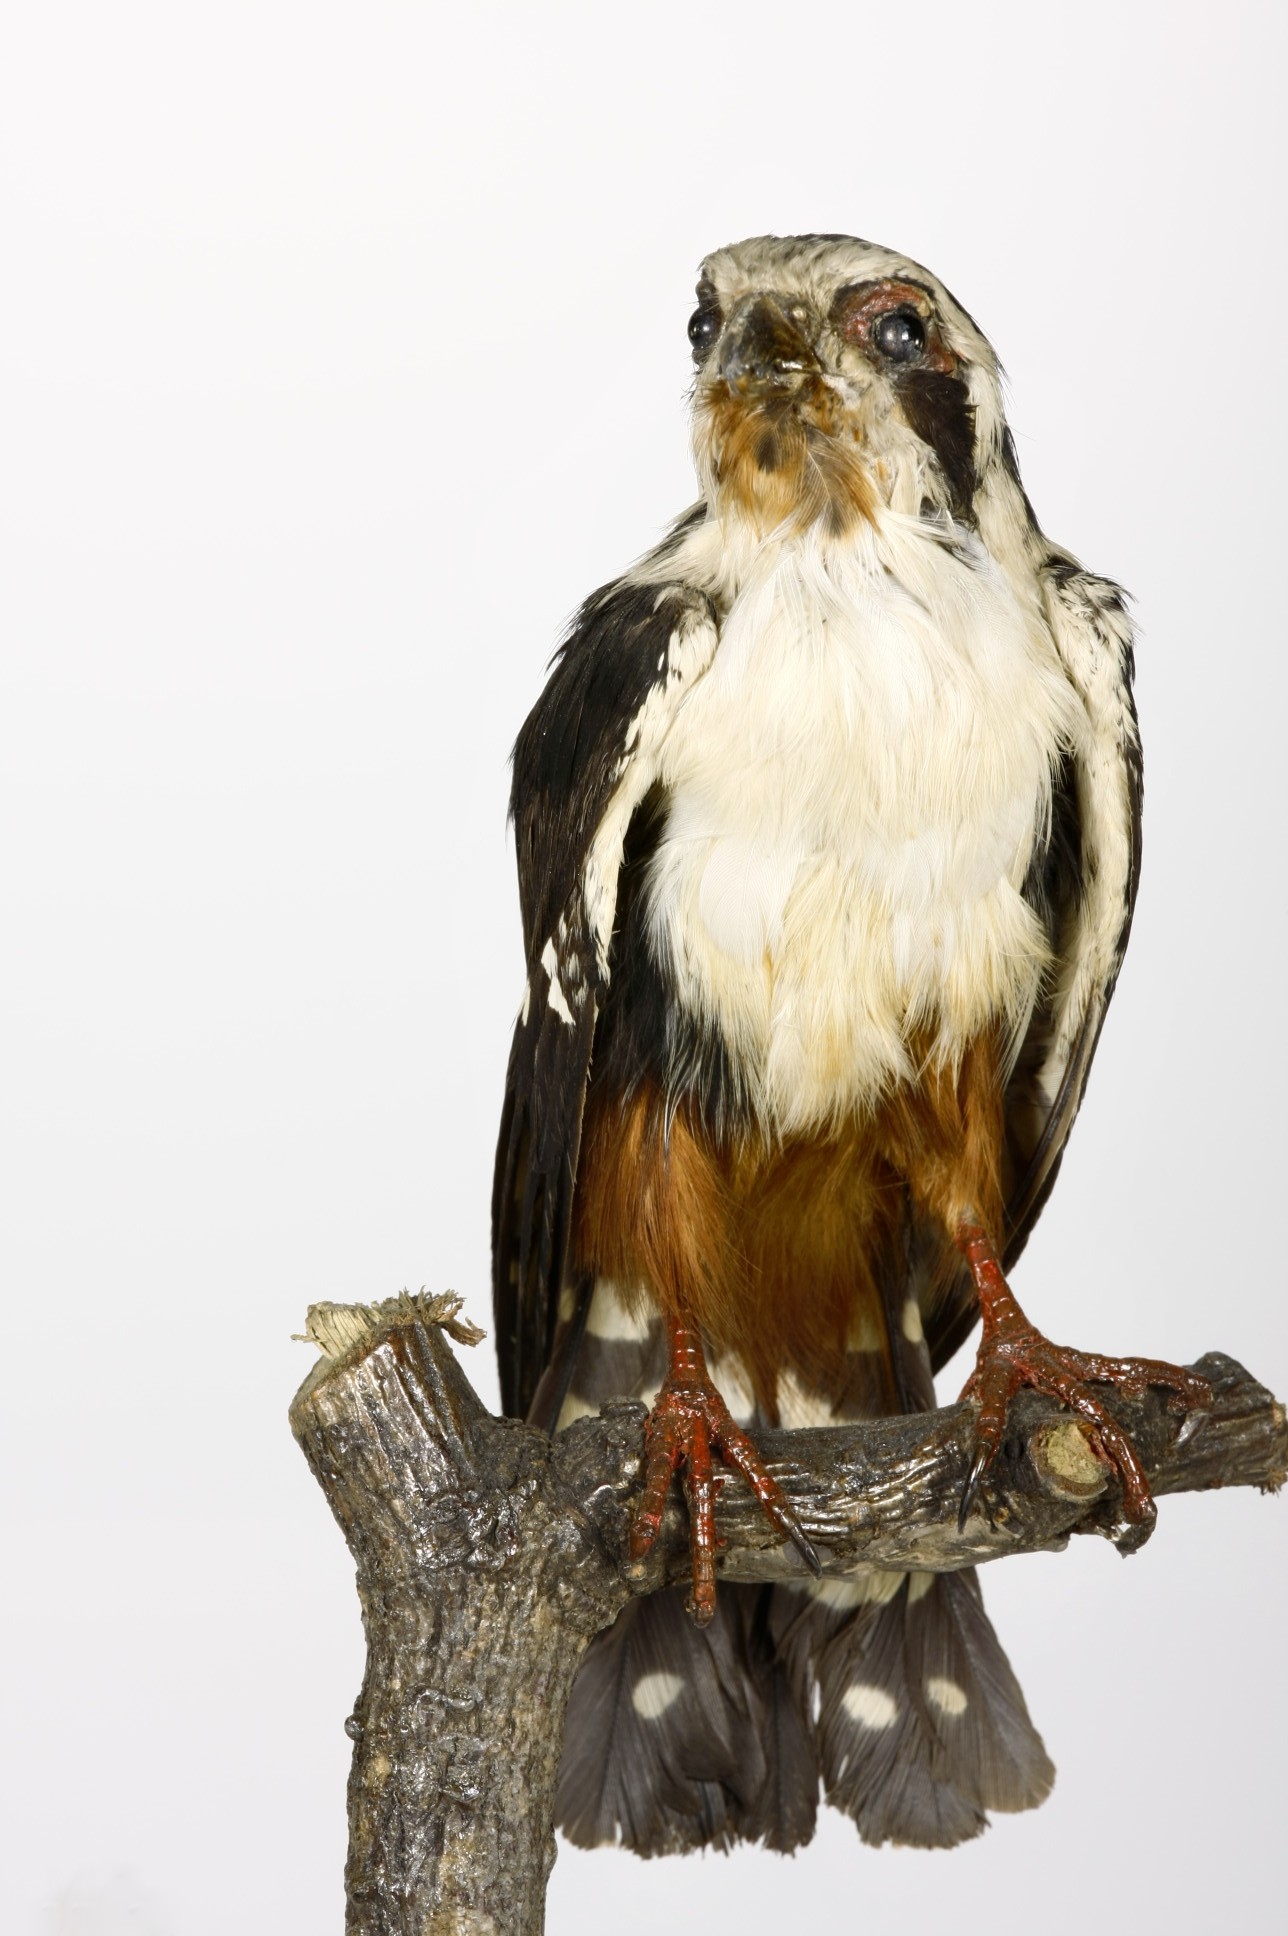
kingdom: Animalia
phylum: Chordata
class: Aves
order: Falconiformes
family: Falconidae
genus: Microhierax
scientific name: Microhierax caerulescens
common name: Collared falconet
